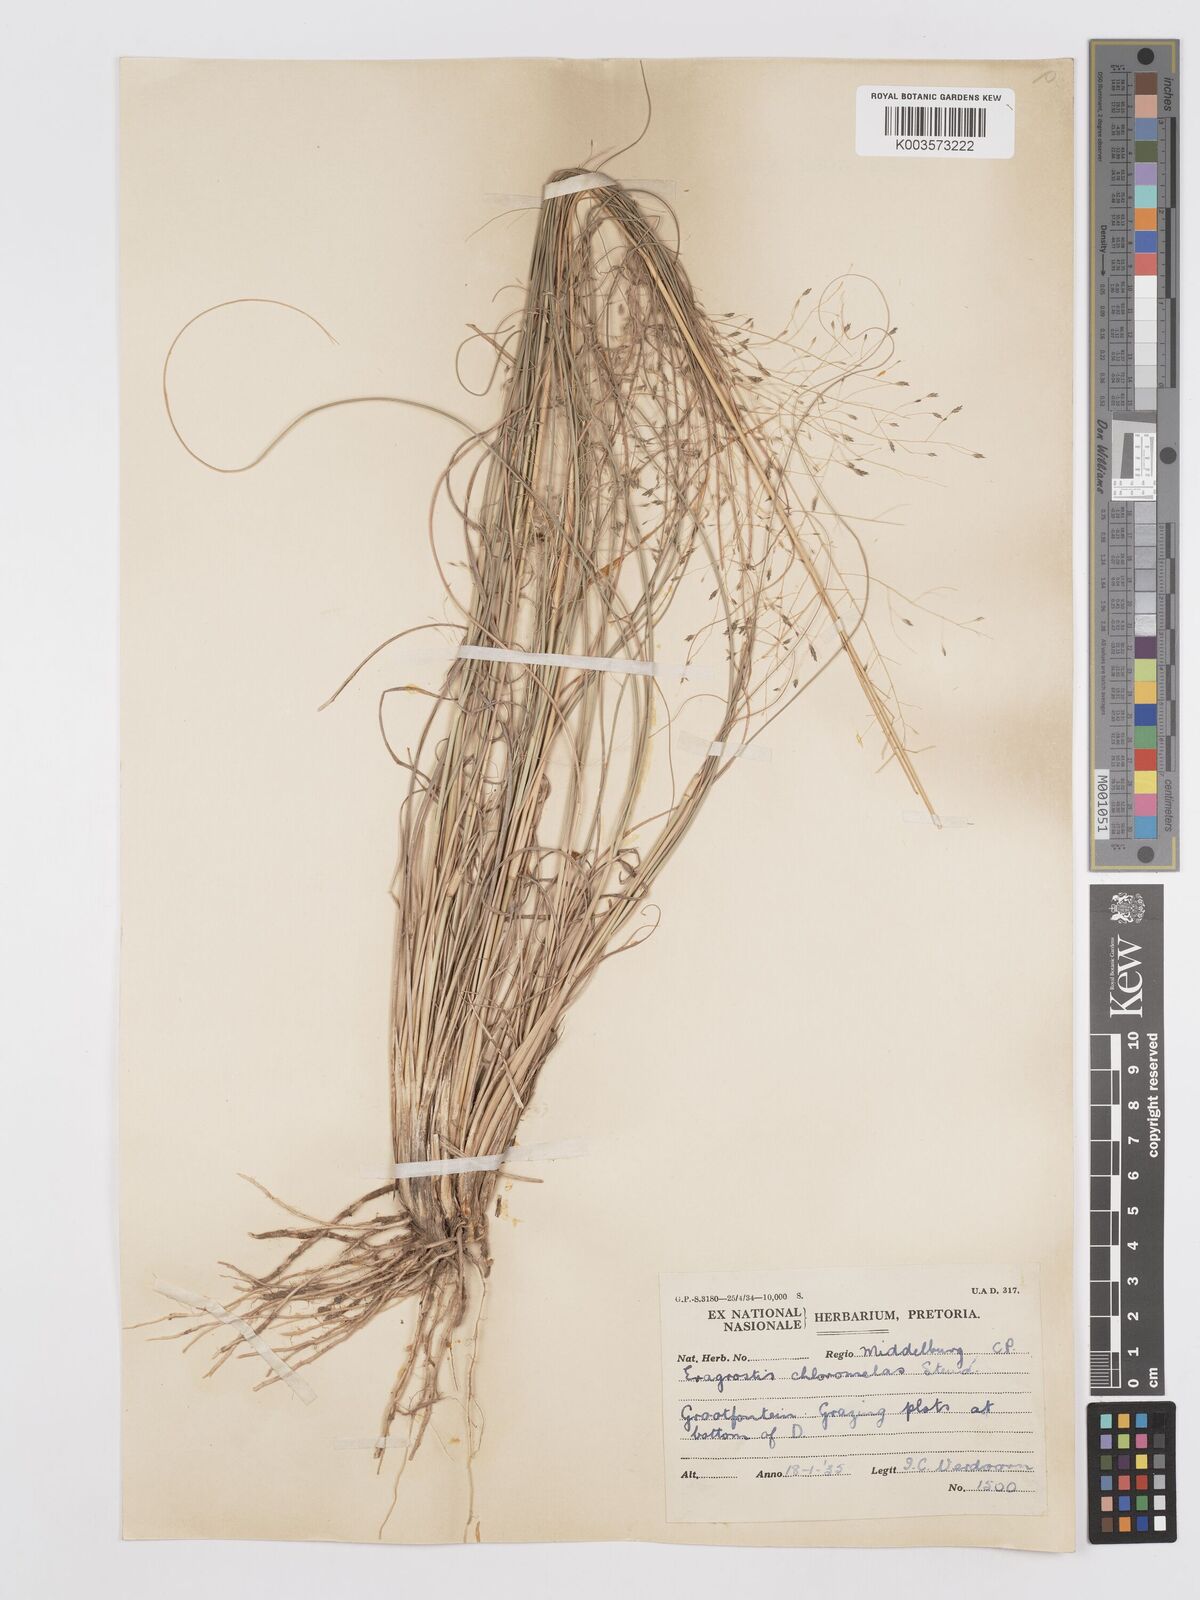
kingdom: Plantae
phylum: Tracheophyta
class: Liliopsida
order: Poales
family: Poaceae
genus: Eragrostis
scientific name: Eragrostis curvula
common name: African love-grass
